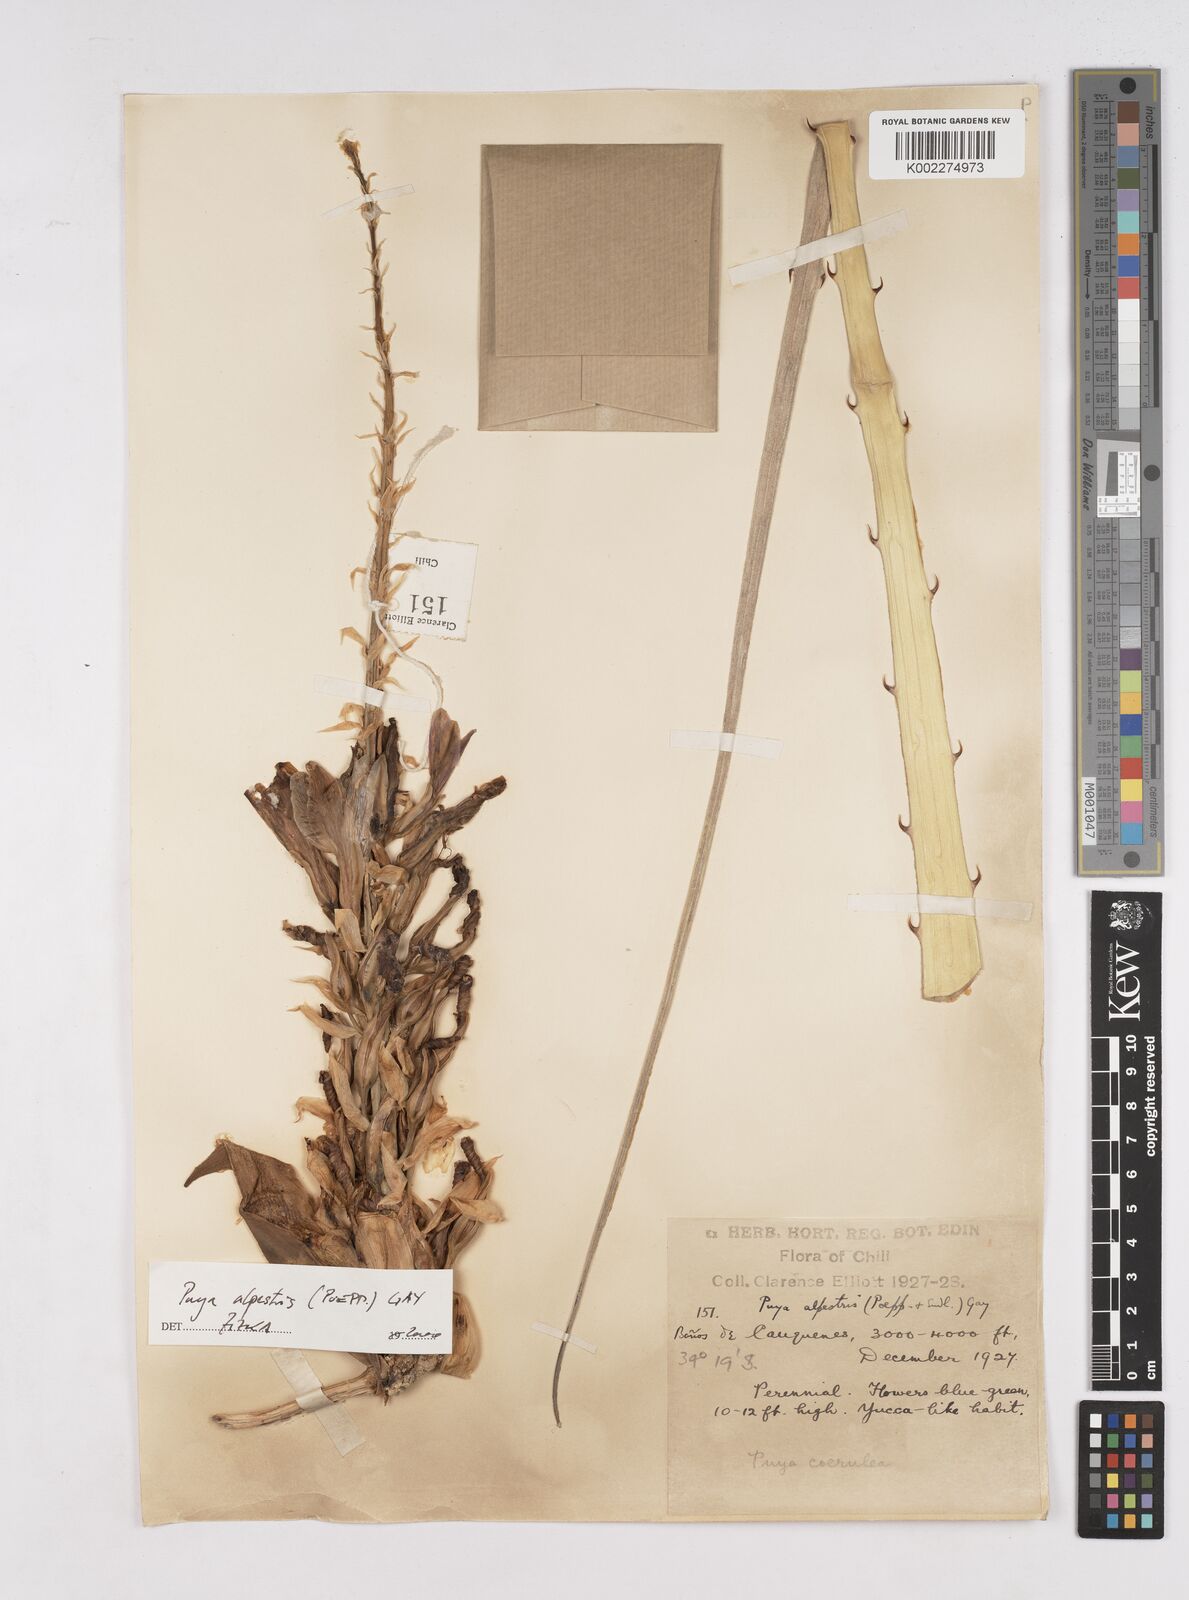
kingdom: Plantae
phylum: Tracheophyta
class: Liliopsida
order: Poales
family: Bromeliaceae
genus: Puya
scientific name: Puya berteroniana
